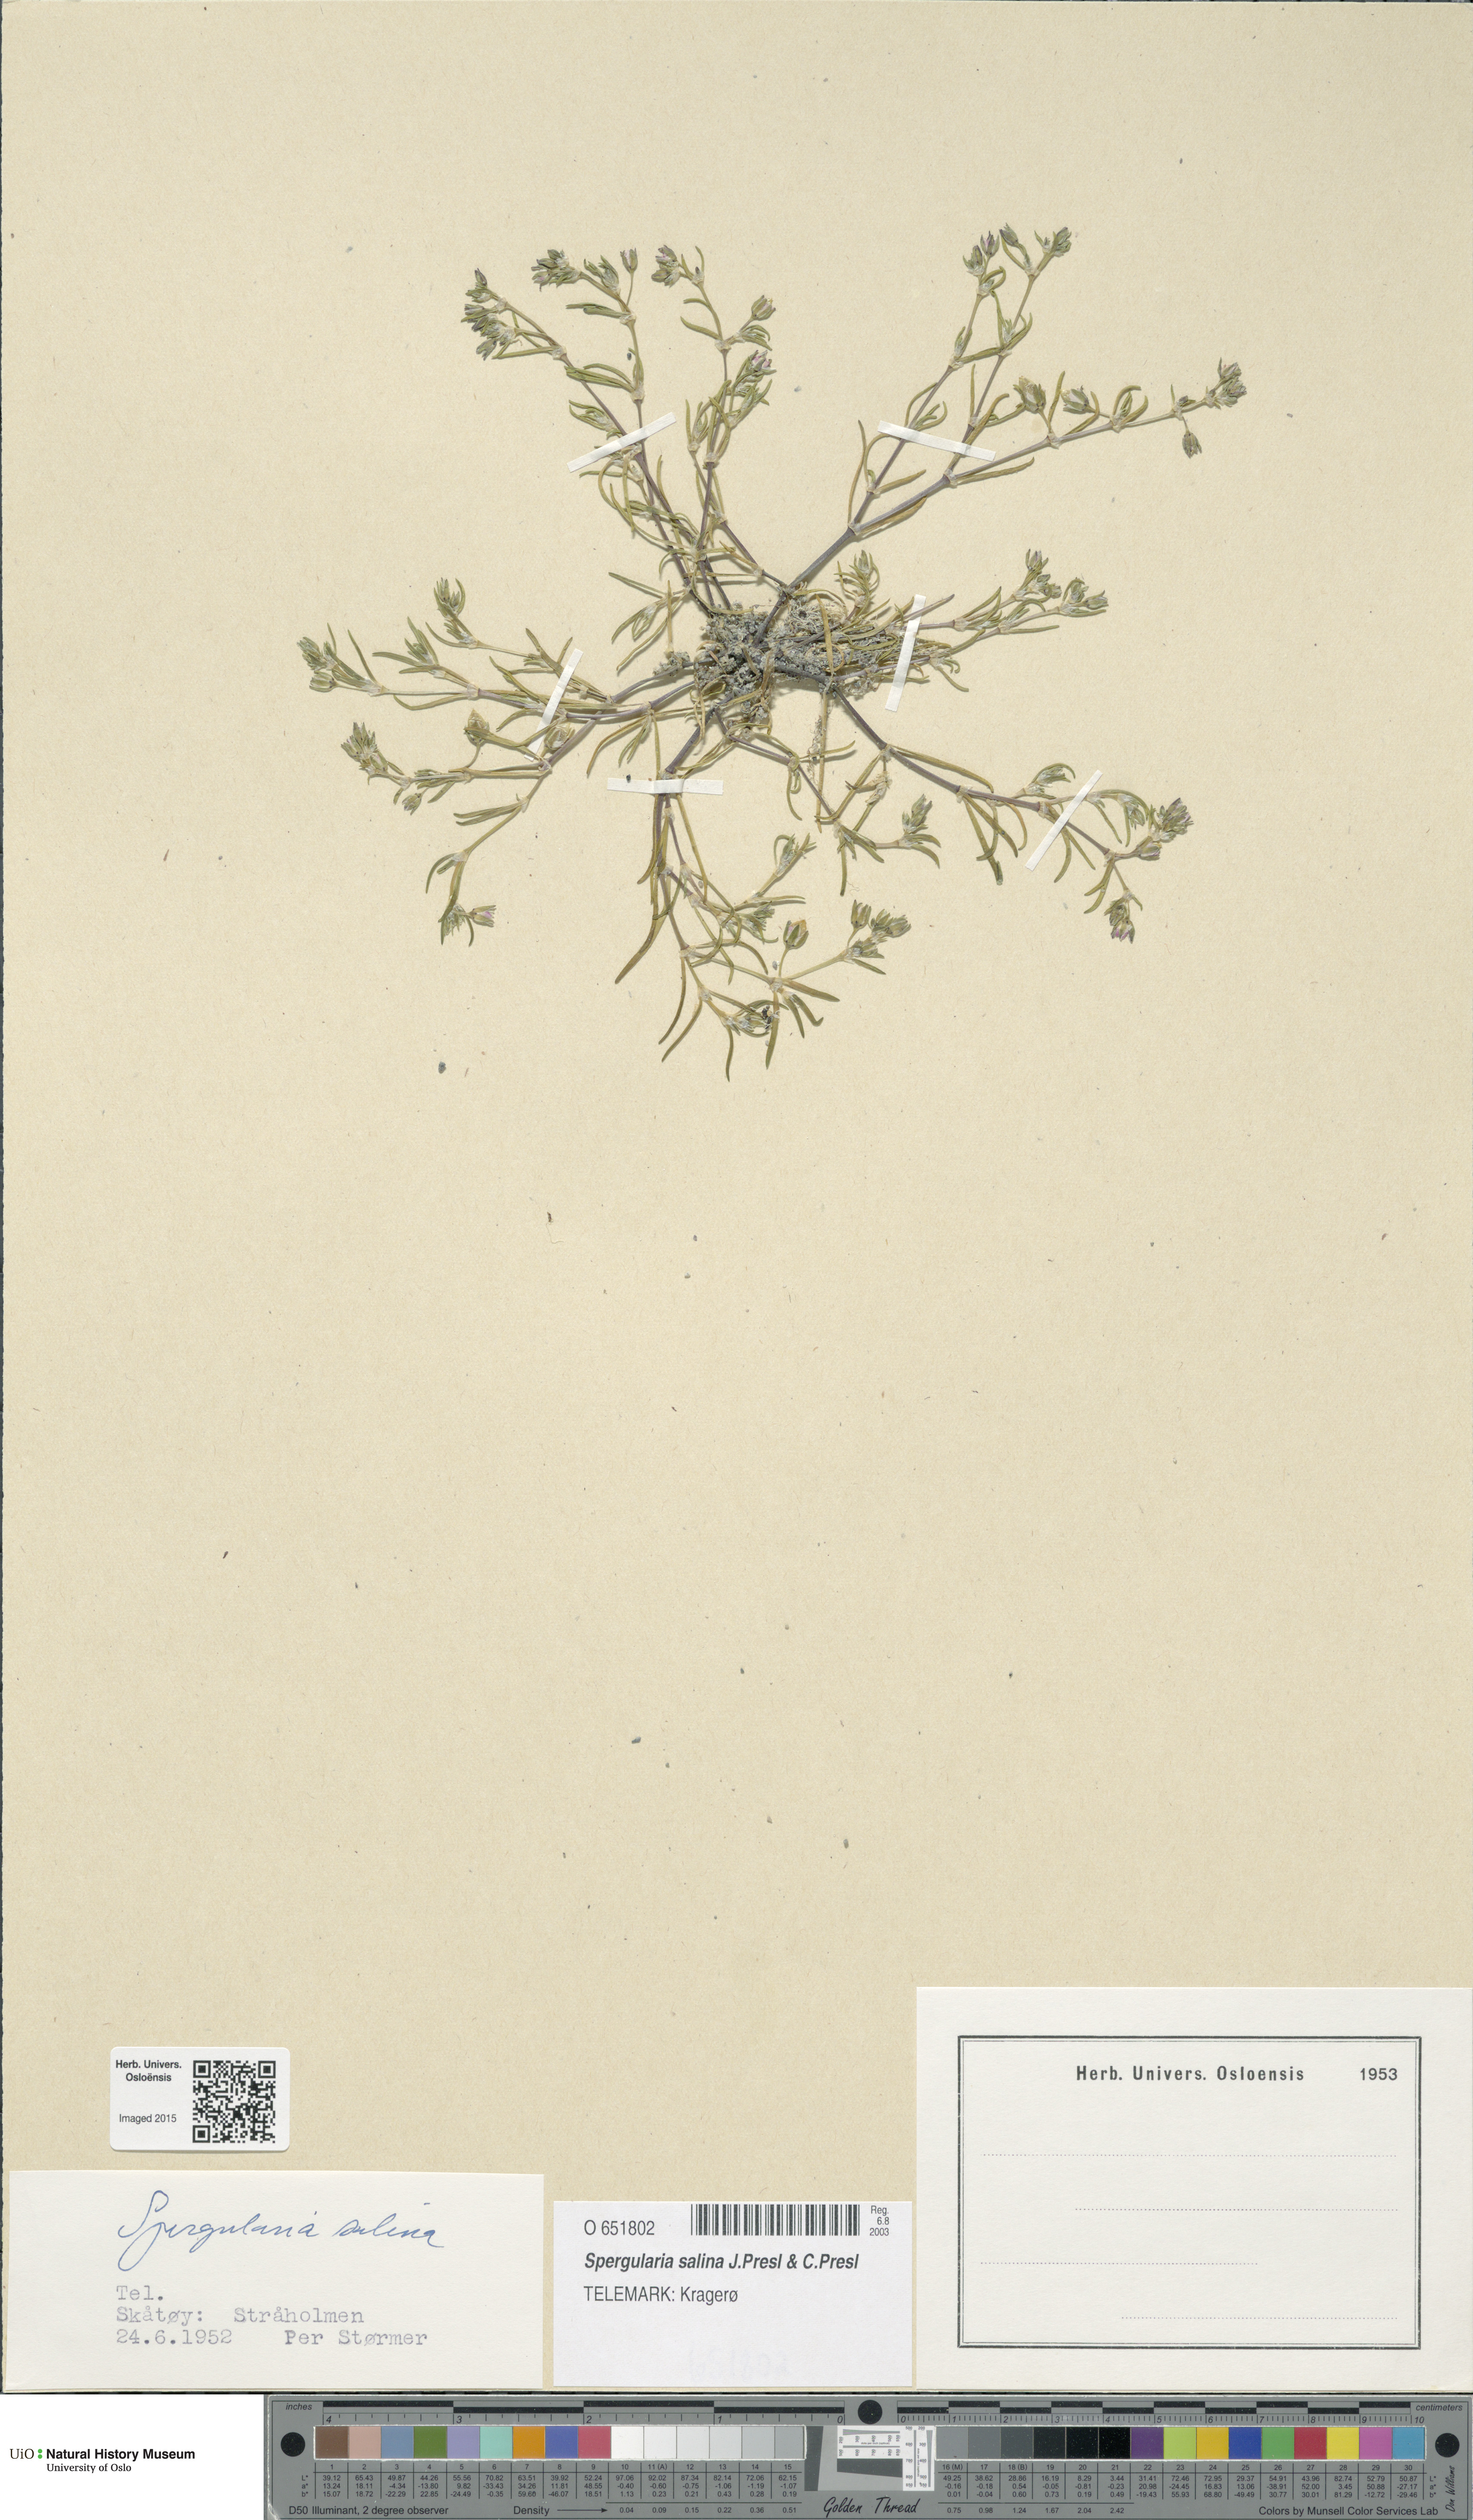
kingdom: Plantae
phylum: Tracheophyta
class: Magnoliopsida
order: Caryophyllales
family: Caryophyllaceae
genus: Spergularia
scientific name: Spergularia marina
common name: Lesser sea-spurrey
